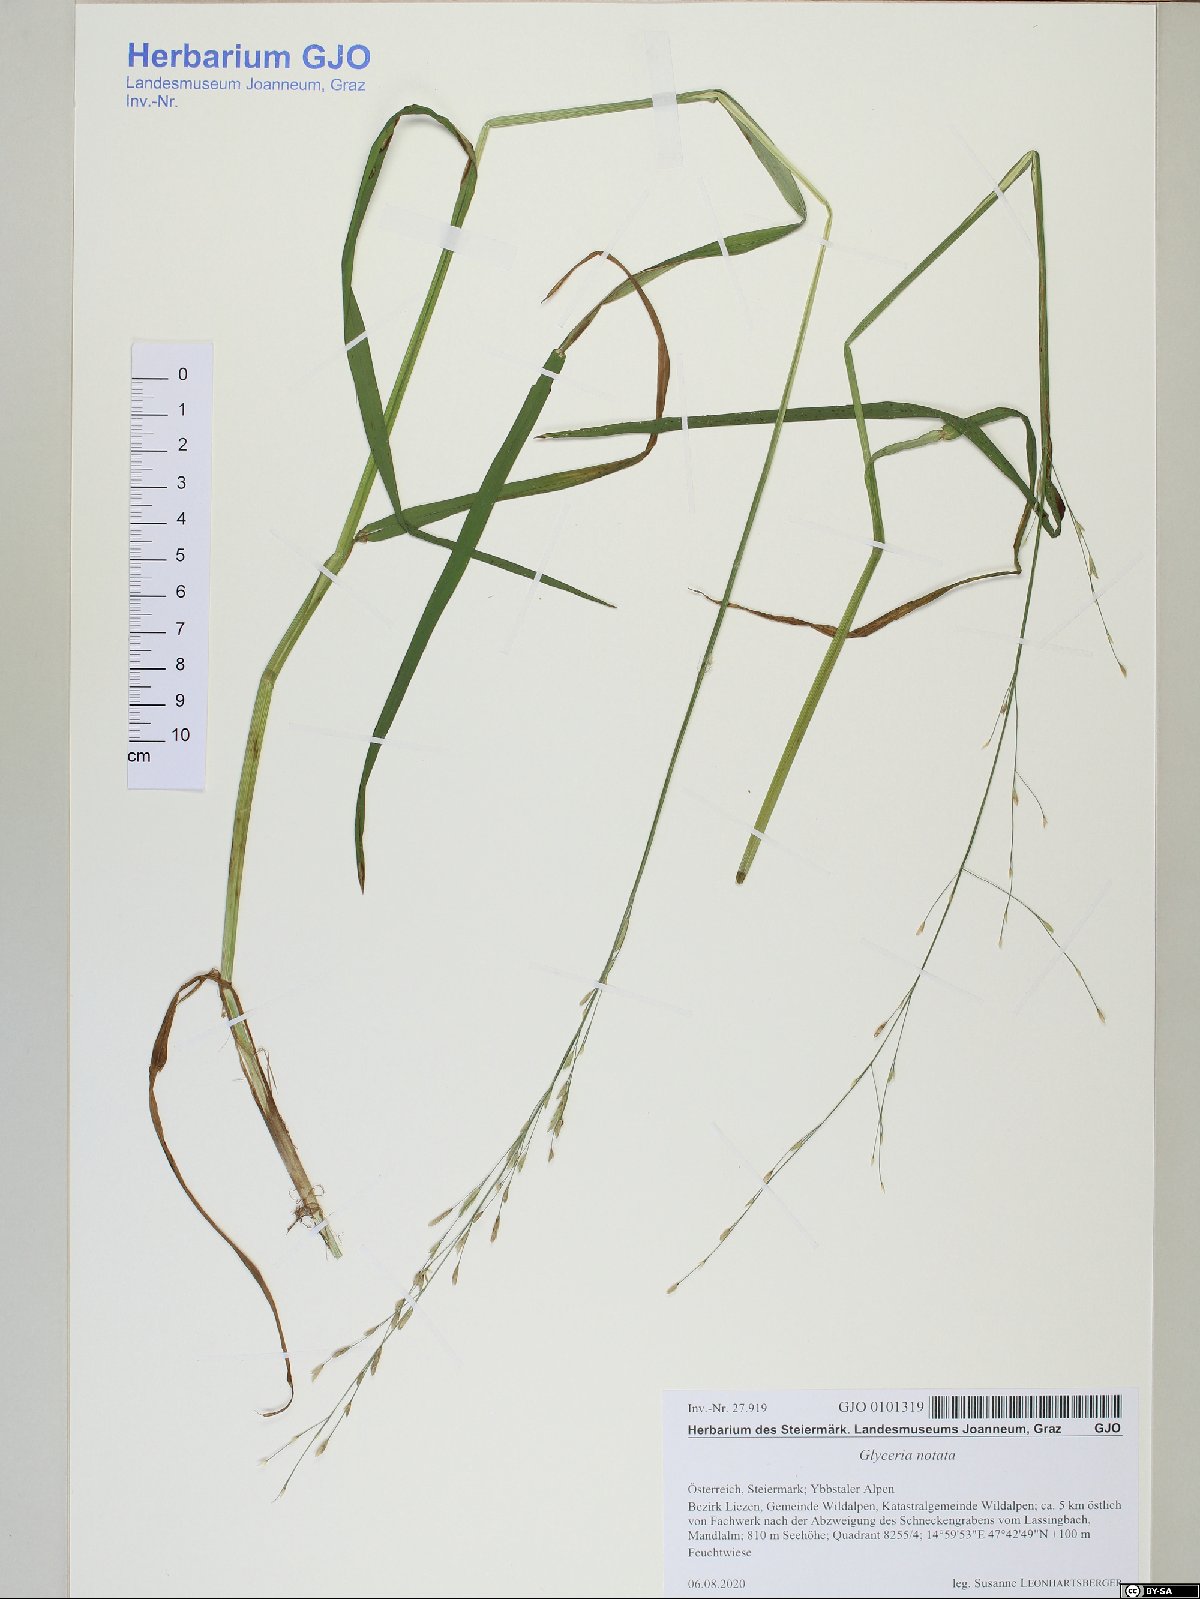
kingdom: Plantae
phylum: Tracheophyta
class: Liliopsida
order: Poales
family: Poaceae
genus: Glyceria
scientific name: Glyceria notata
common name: Plicate sweet-grass
